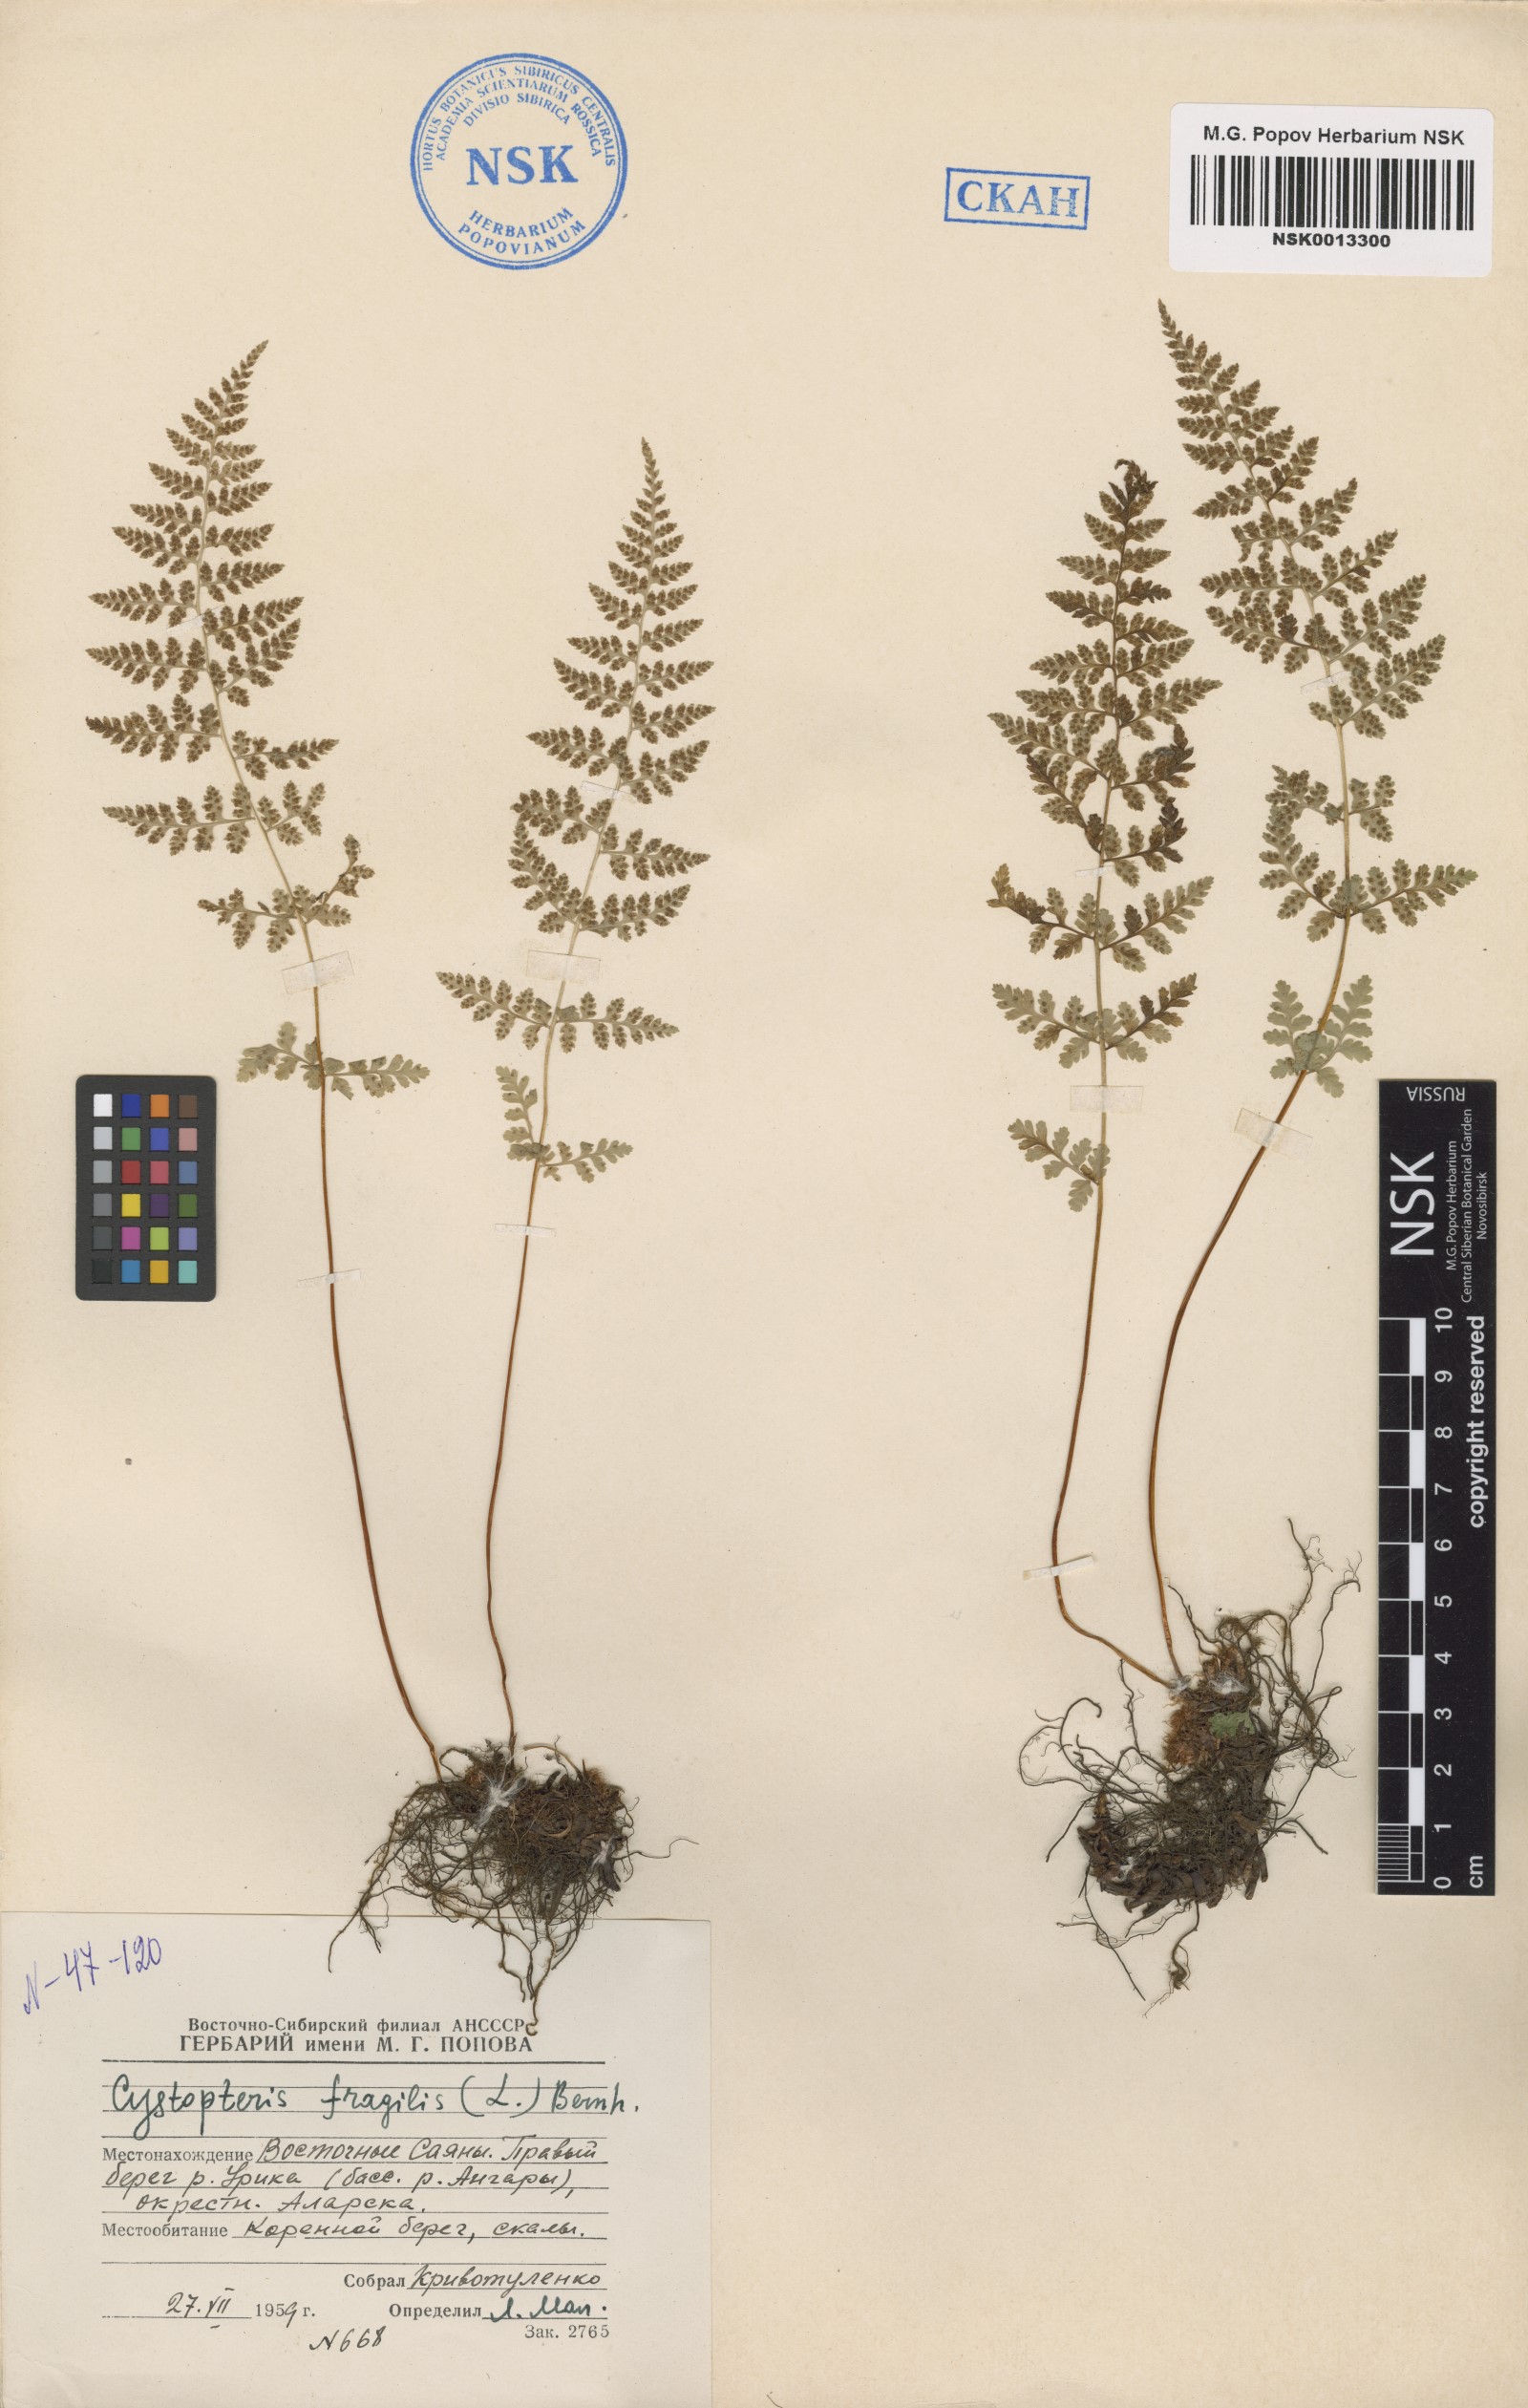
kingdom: Plantae
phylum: Tracheophyta
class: Polypodiopsida
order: Polypodiales
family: Cystopteridaceae
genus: Cystopteris
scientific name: Cystopteris fragilis
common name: Brittle bladder fern
